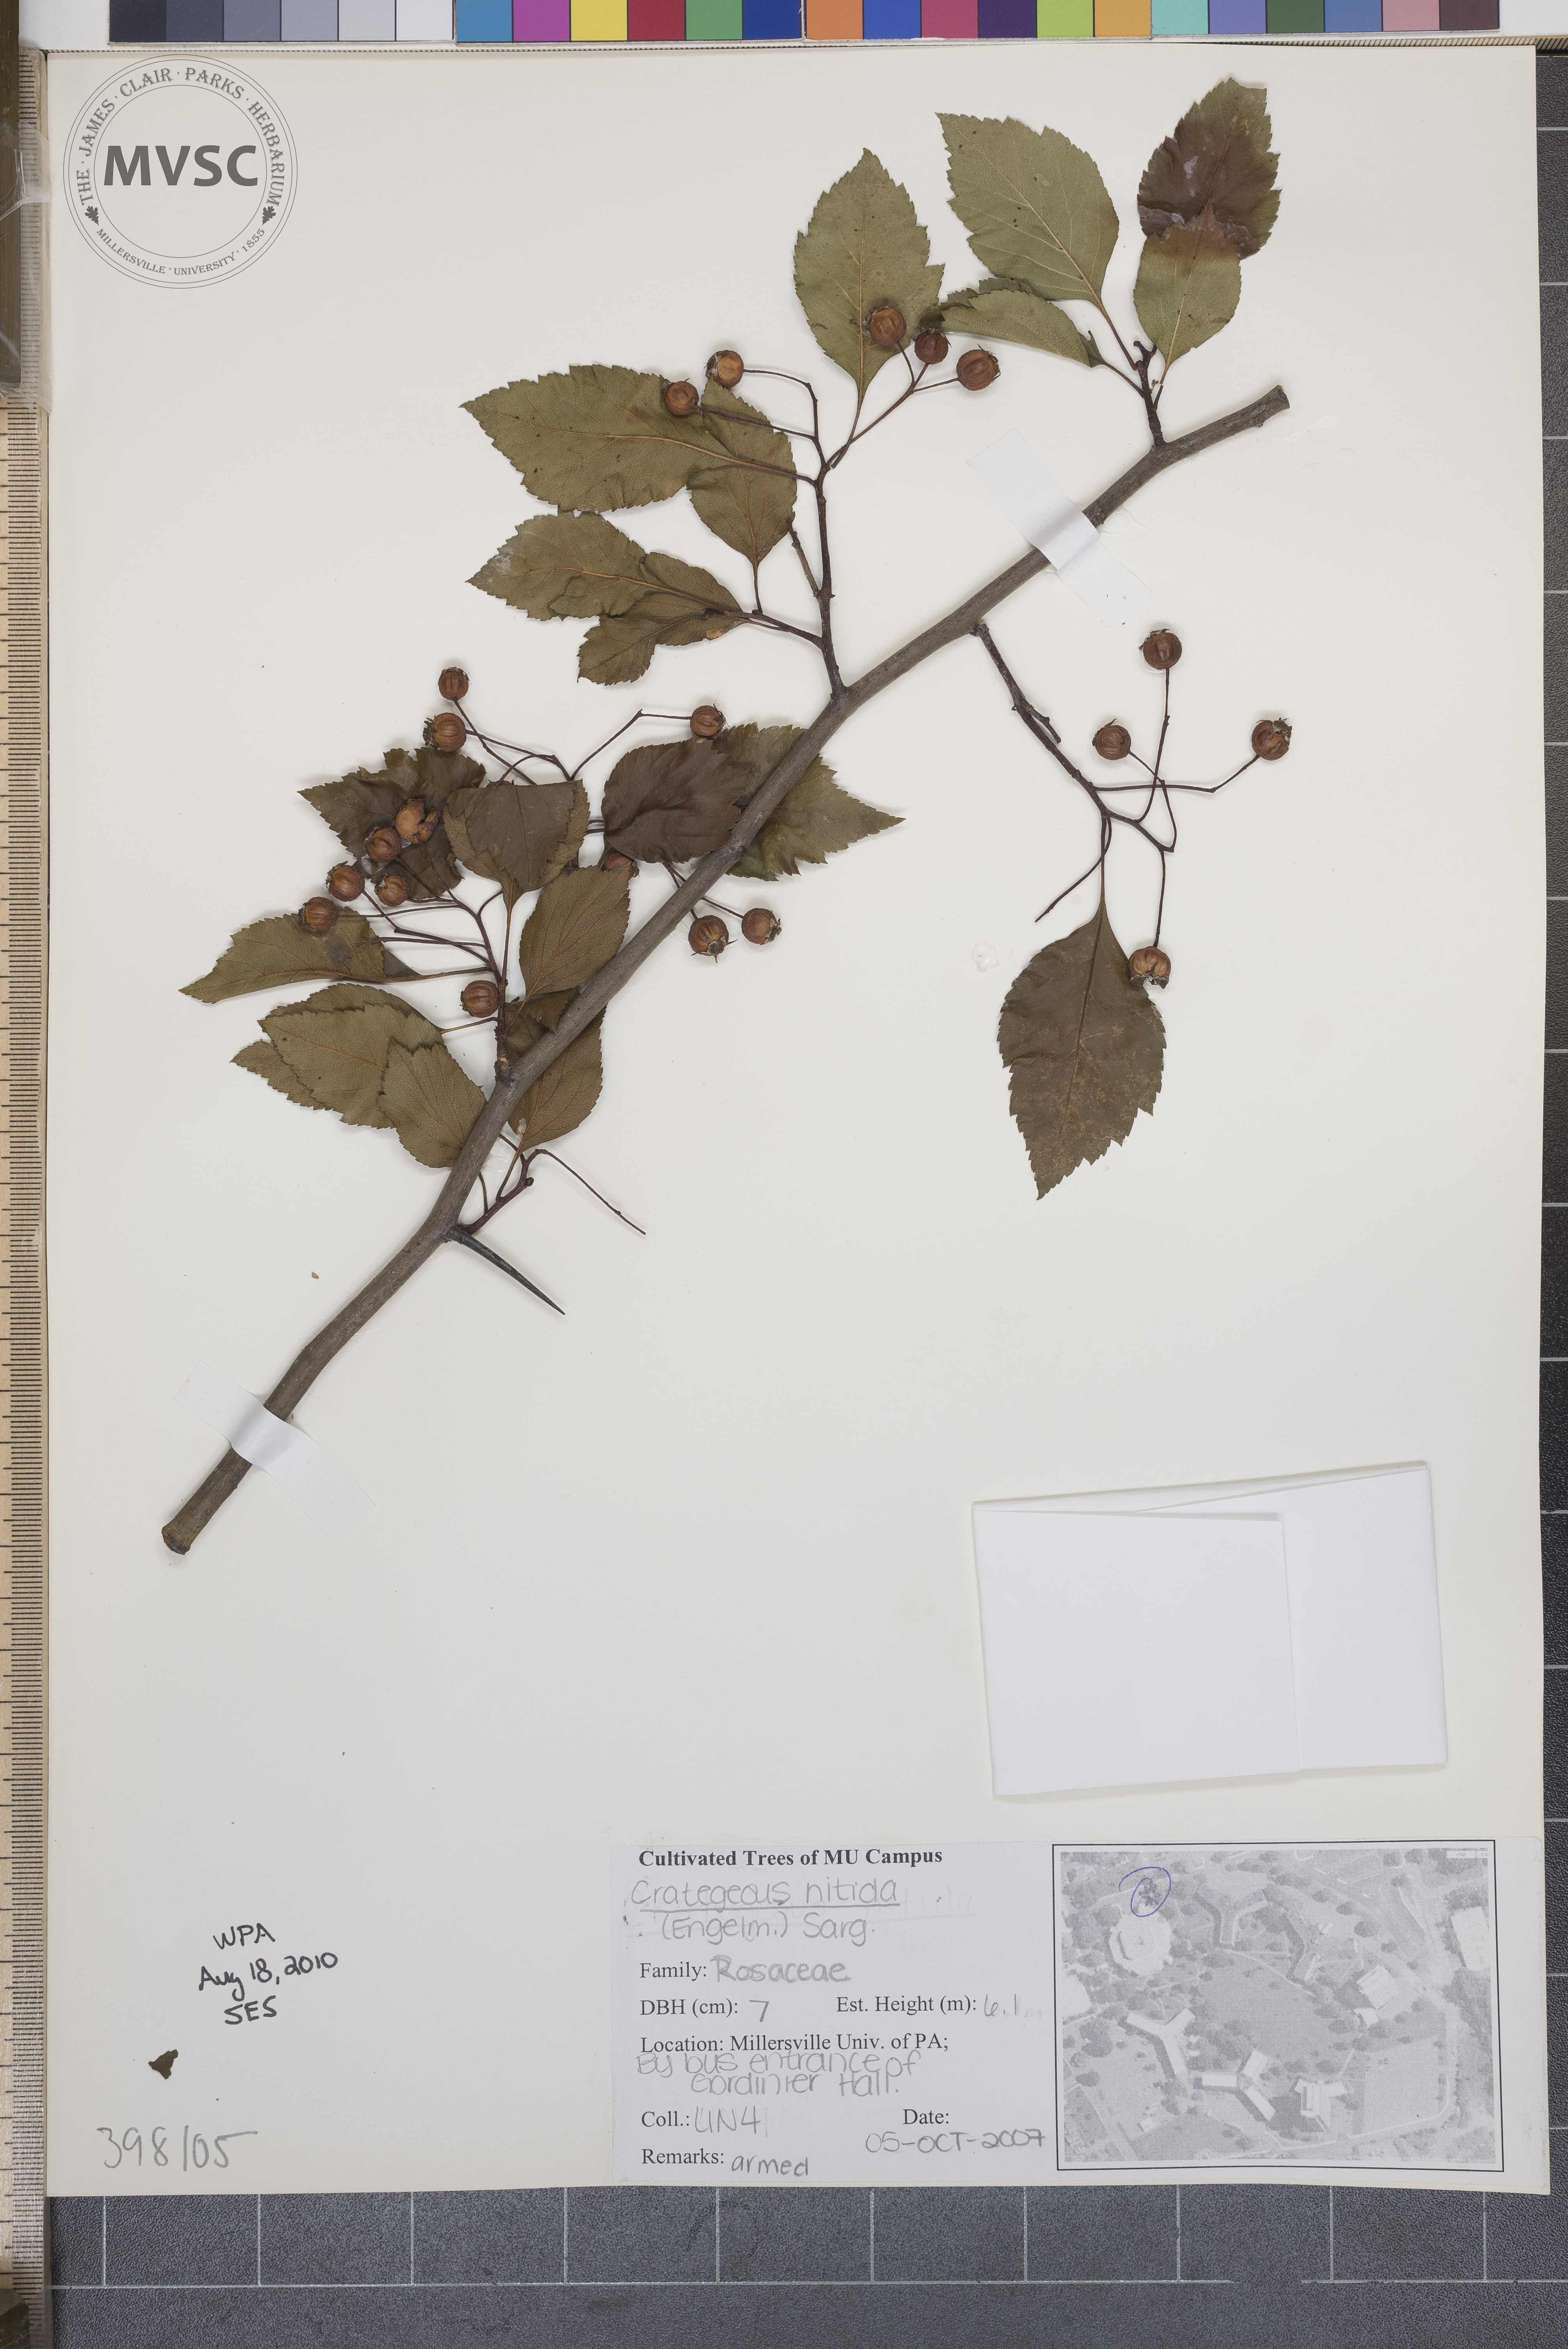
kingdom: Plantae
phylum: Tracheophyta
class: Magnoliopsida
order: Rosales
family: Rosaceae
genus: Crataegus
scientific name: Crataegus nitida
